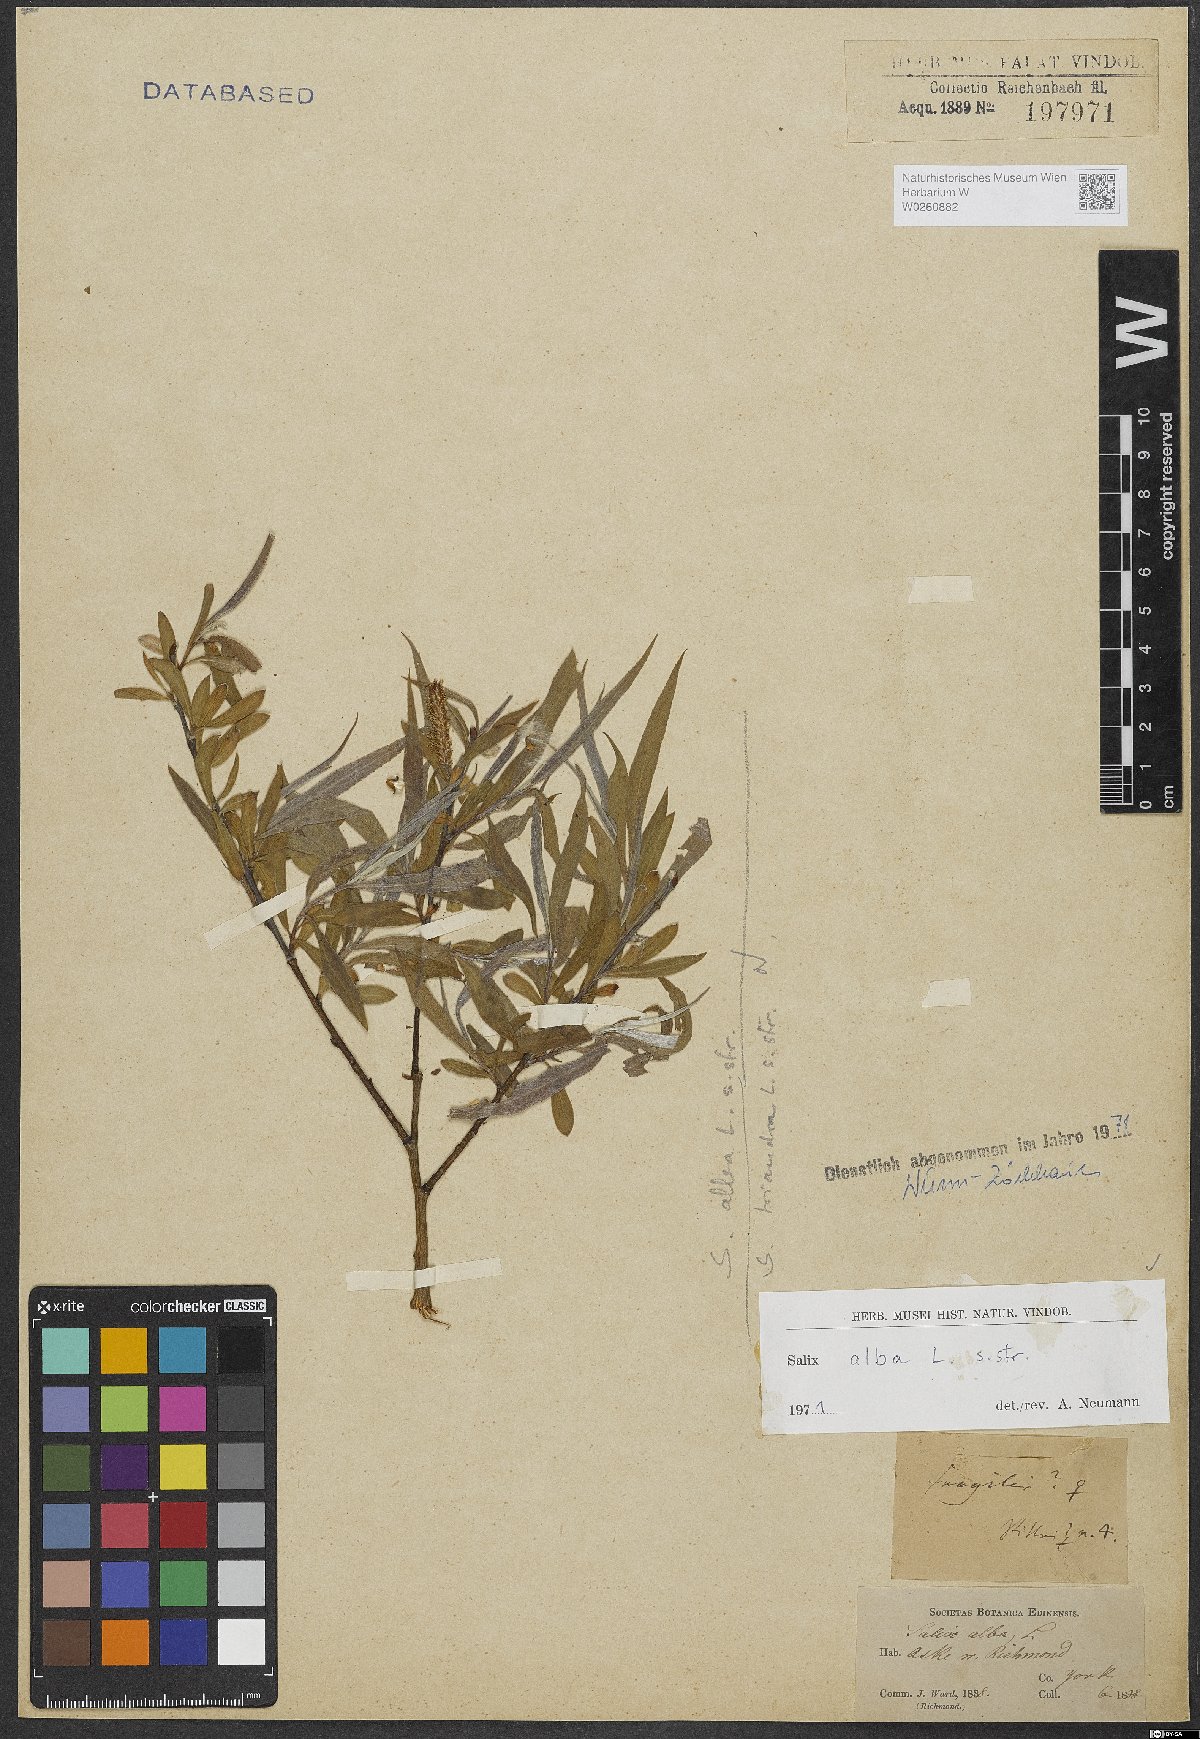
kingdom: Plantae
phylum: Tracheophyta
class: Magnoliopsida
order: Malpighiales
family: Salicaceae
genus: Salix
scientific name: Salix alba
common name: White willow
